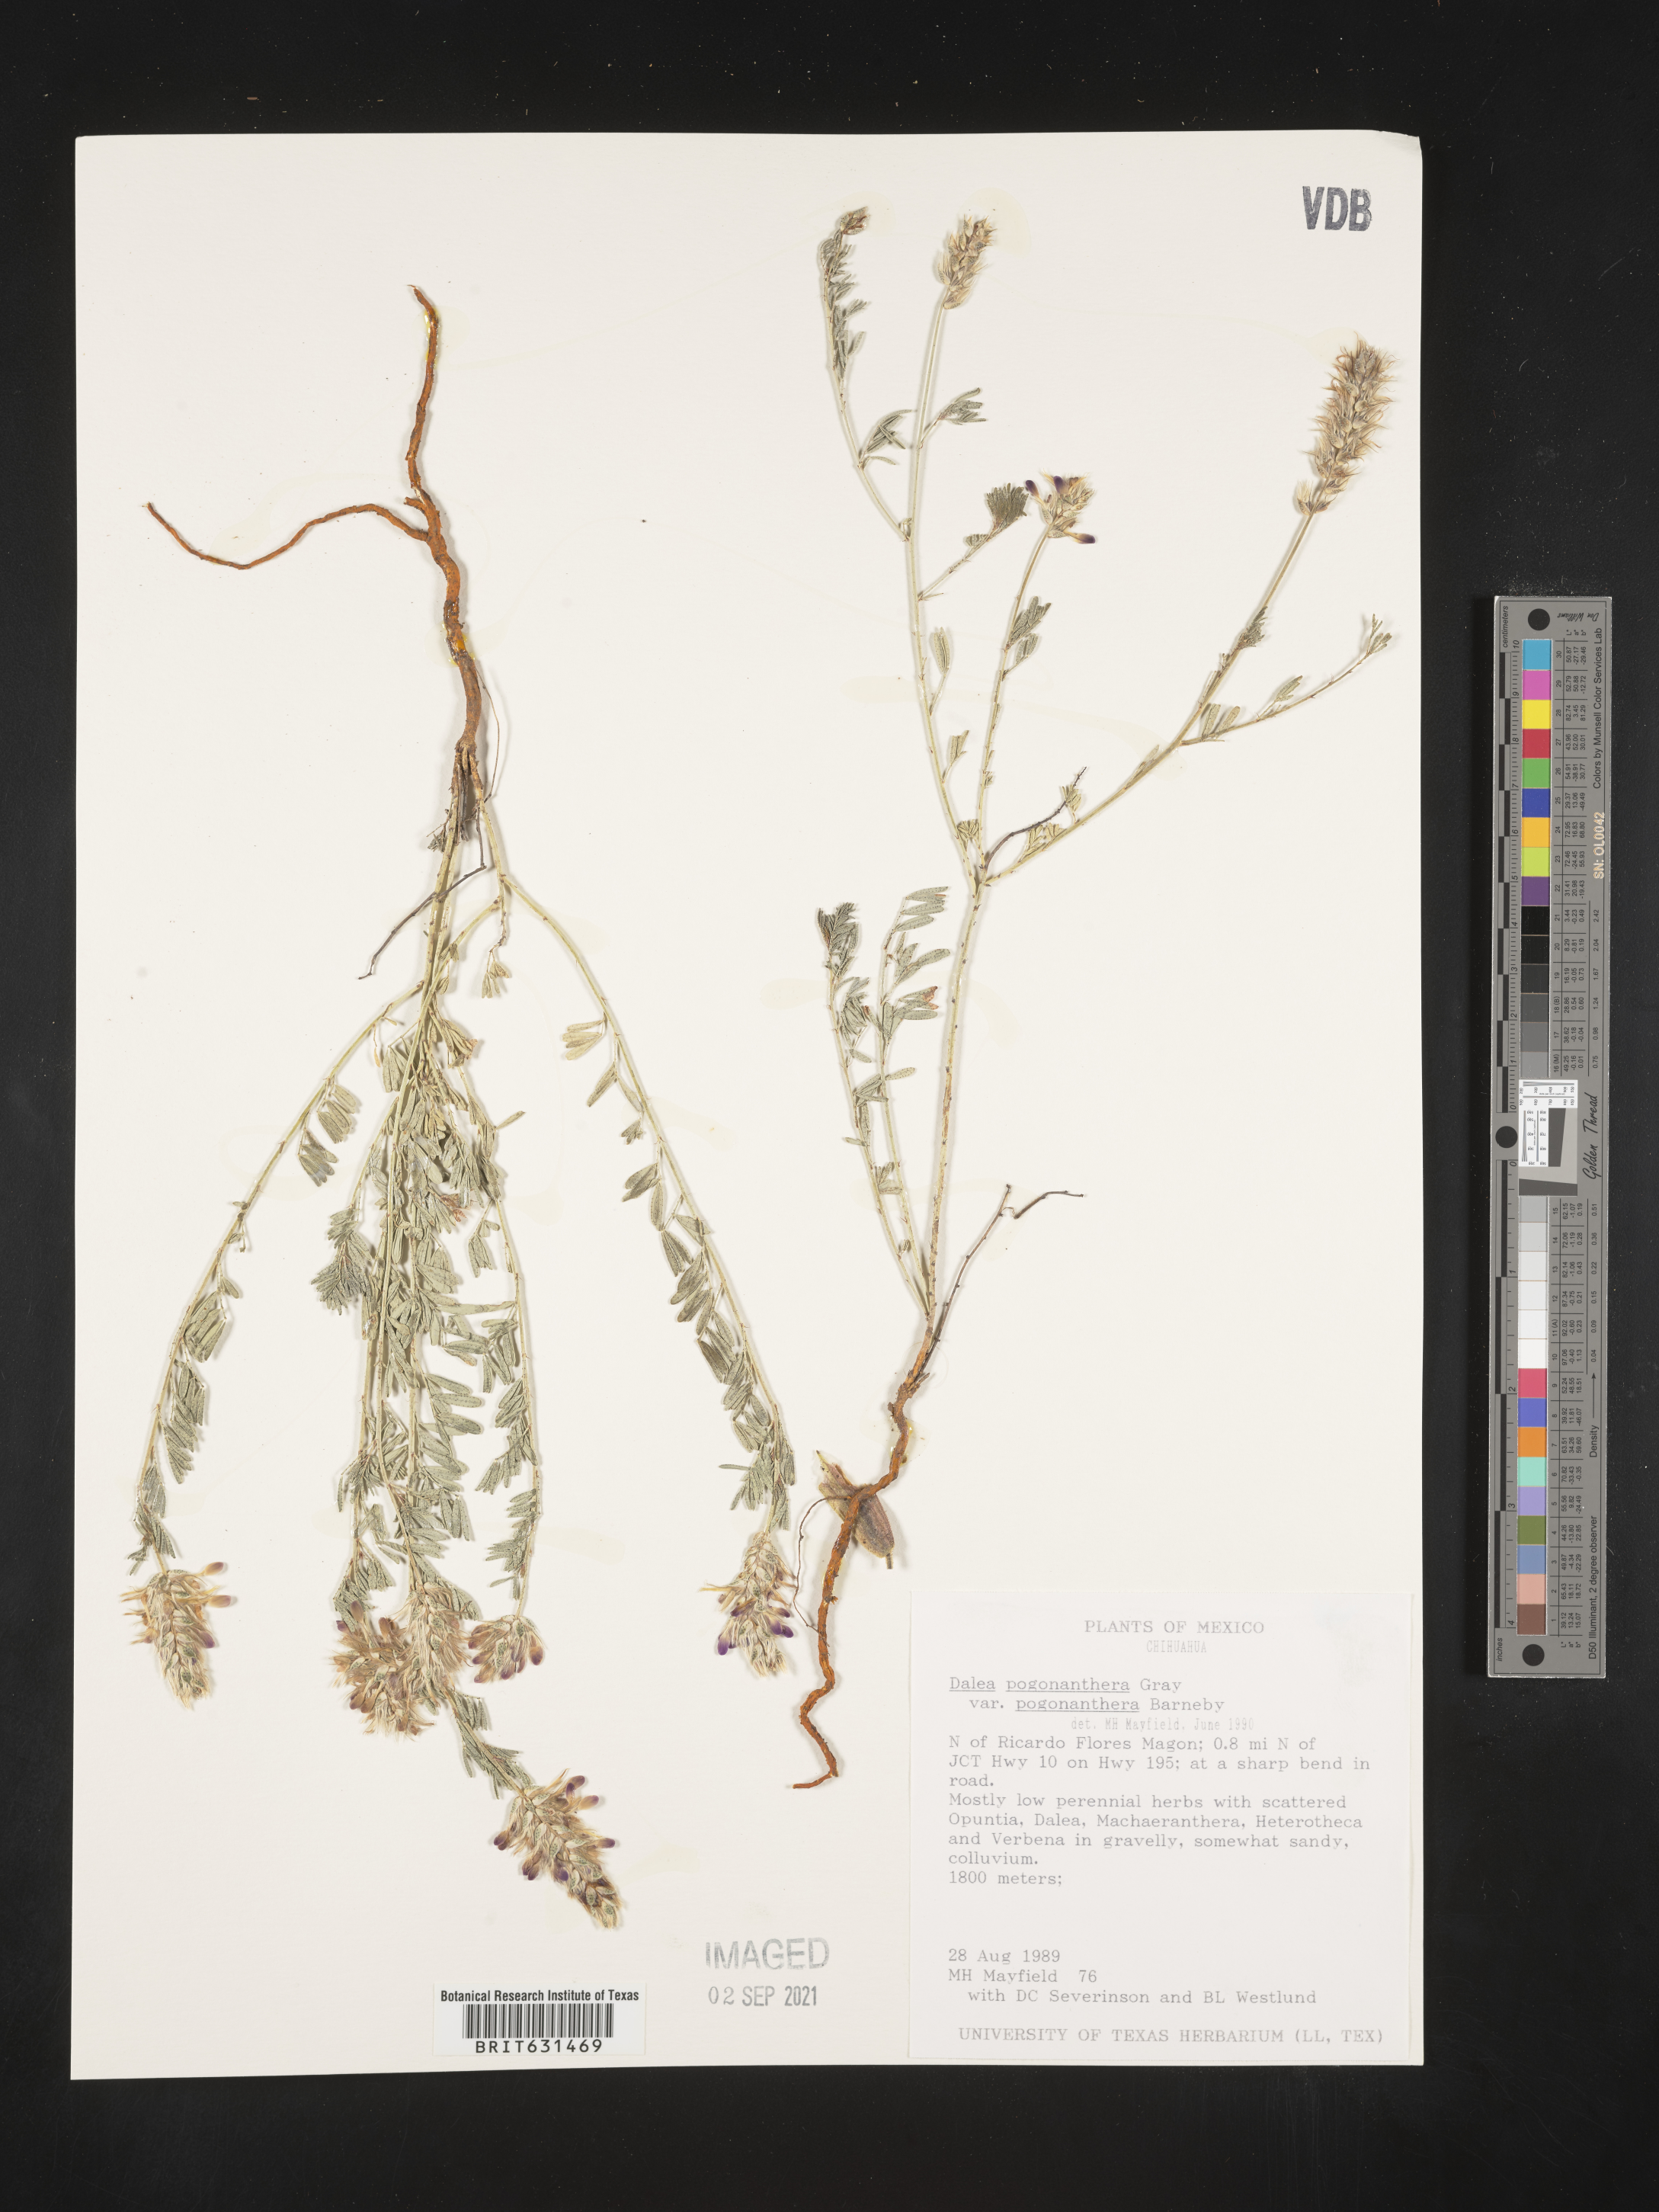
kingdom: Plantae
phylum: Tracheophyta
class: Magnoliopsida
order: Fabales
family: Fabaceae
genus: Dalea
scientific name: Dalea pogonathera
